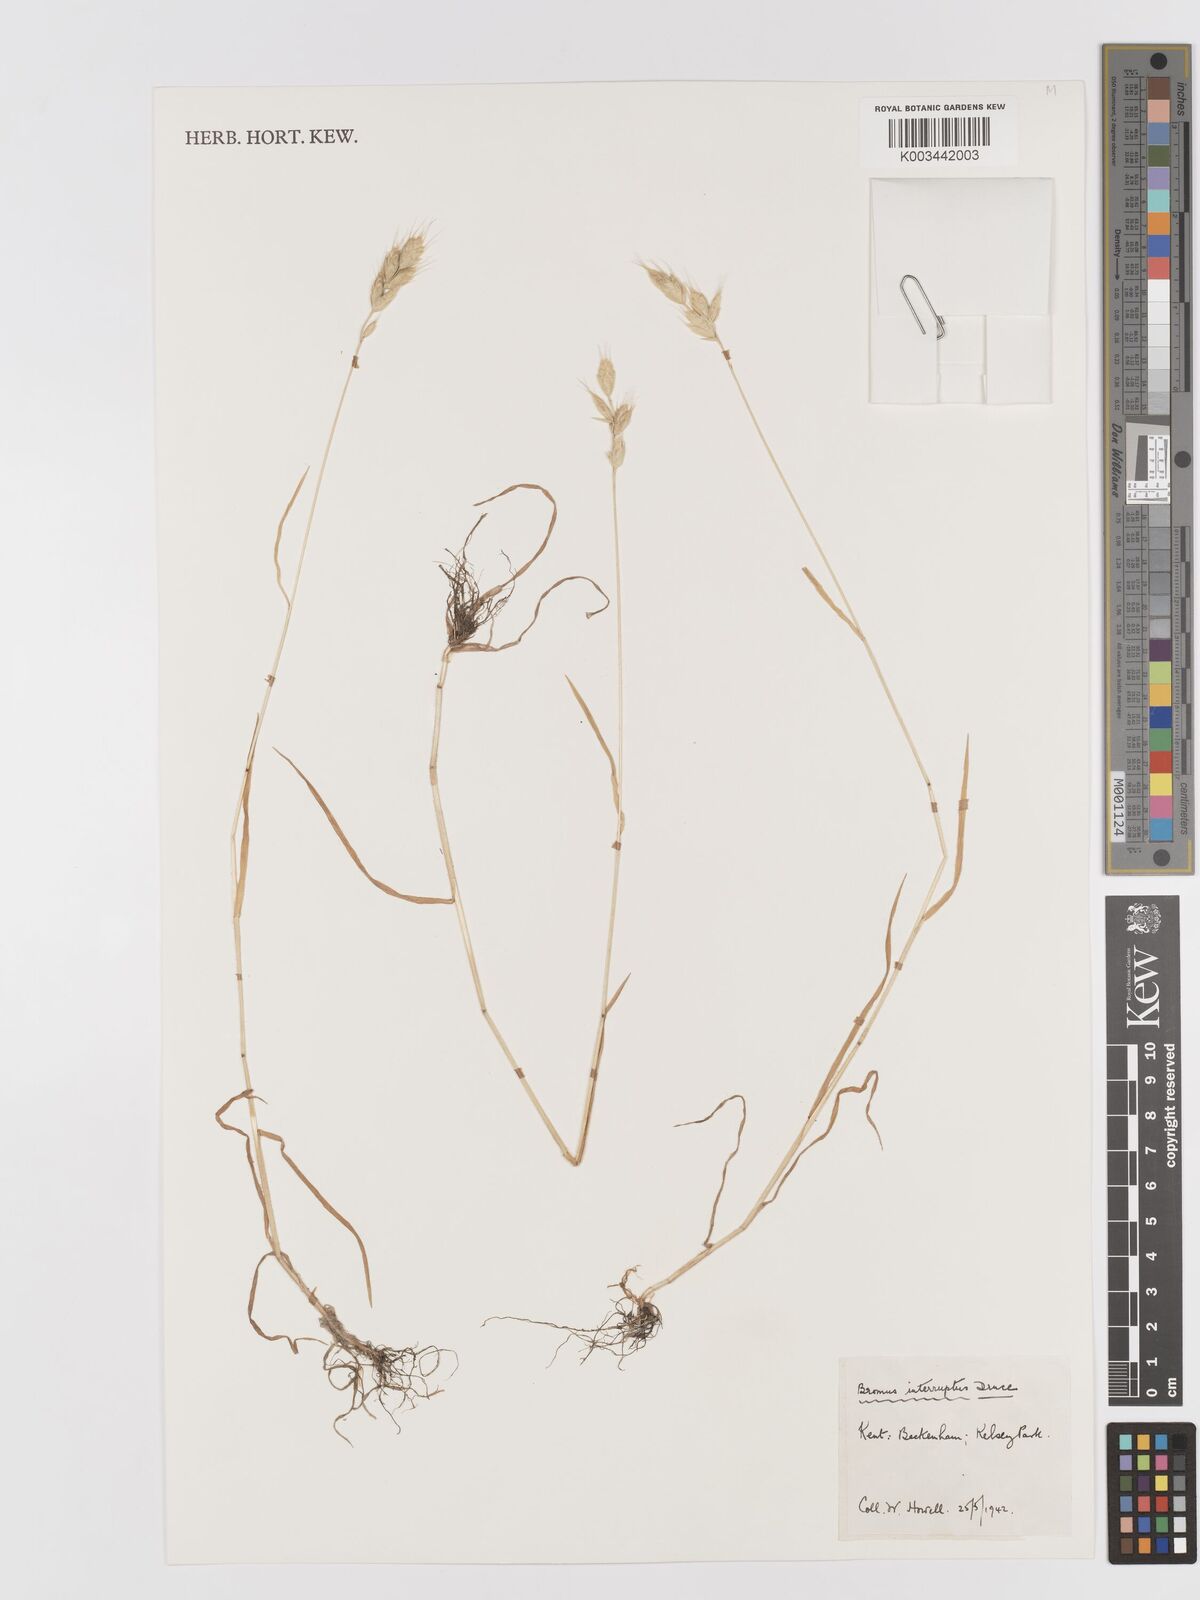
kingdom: Plantae
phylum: Tracheophyta
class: Liliopsida
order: Poales
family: Poaceae
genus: Bromus
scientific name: Bromus interruptus
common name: Interrupted brome
